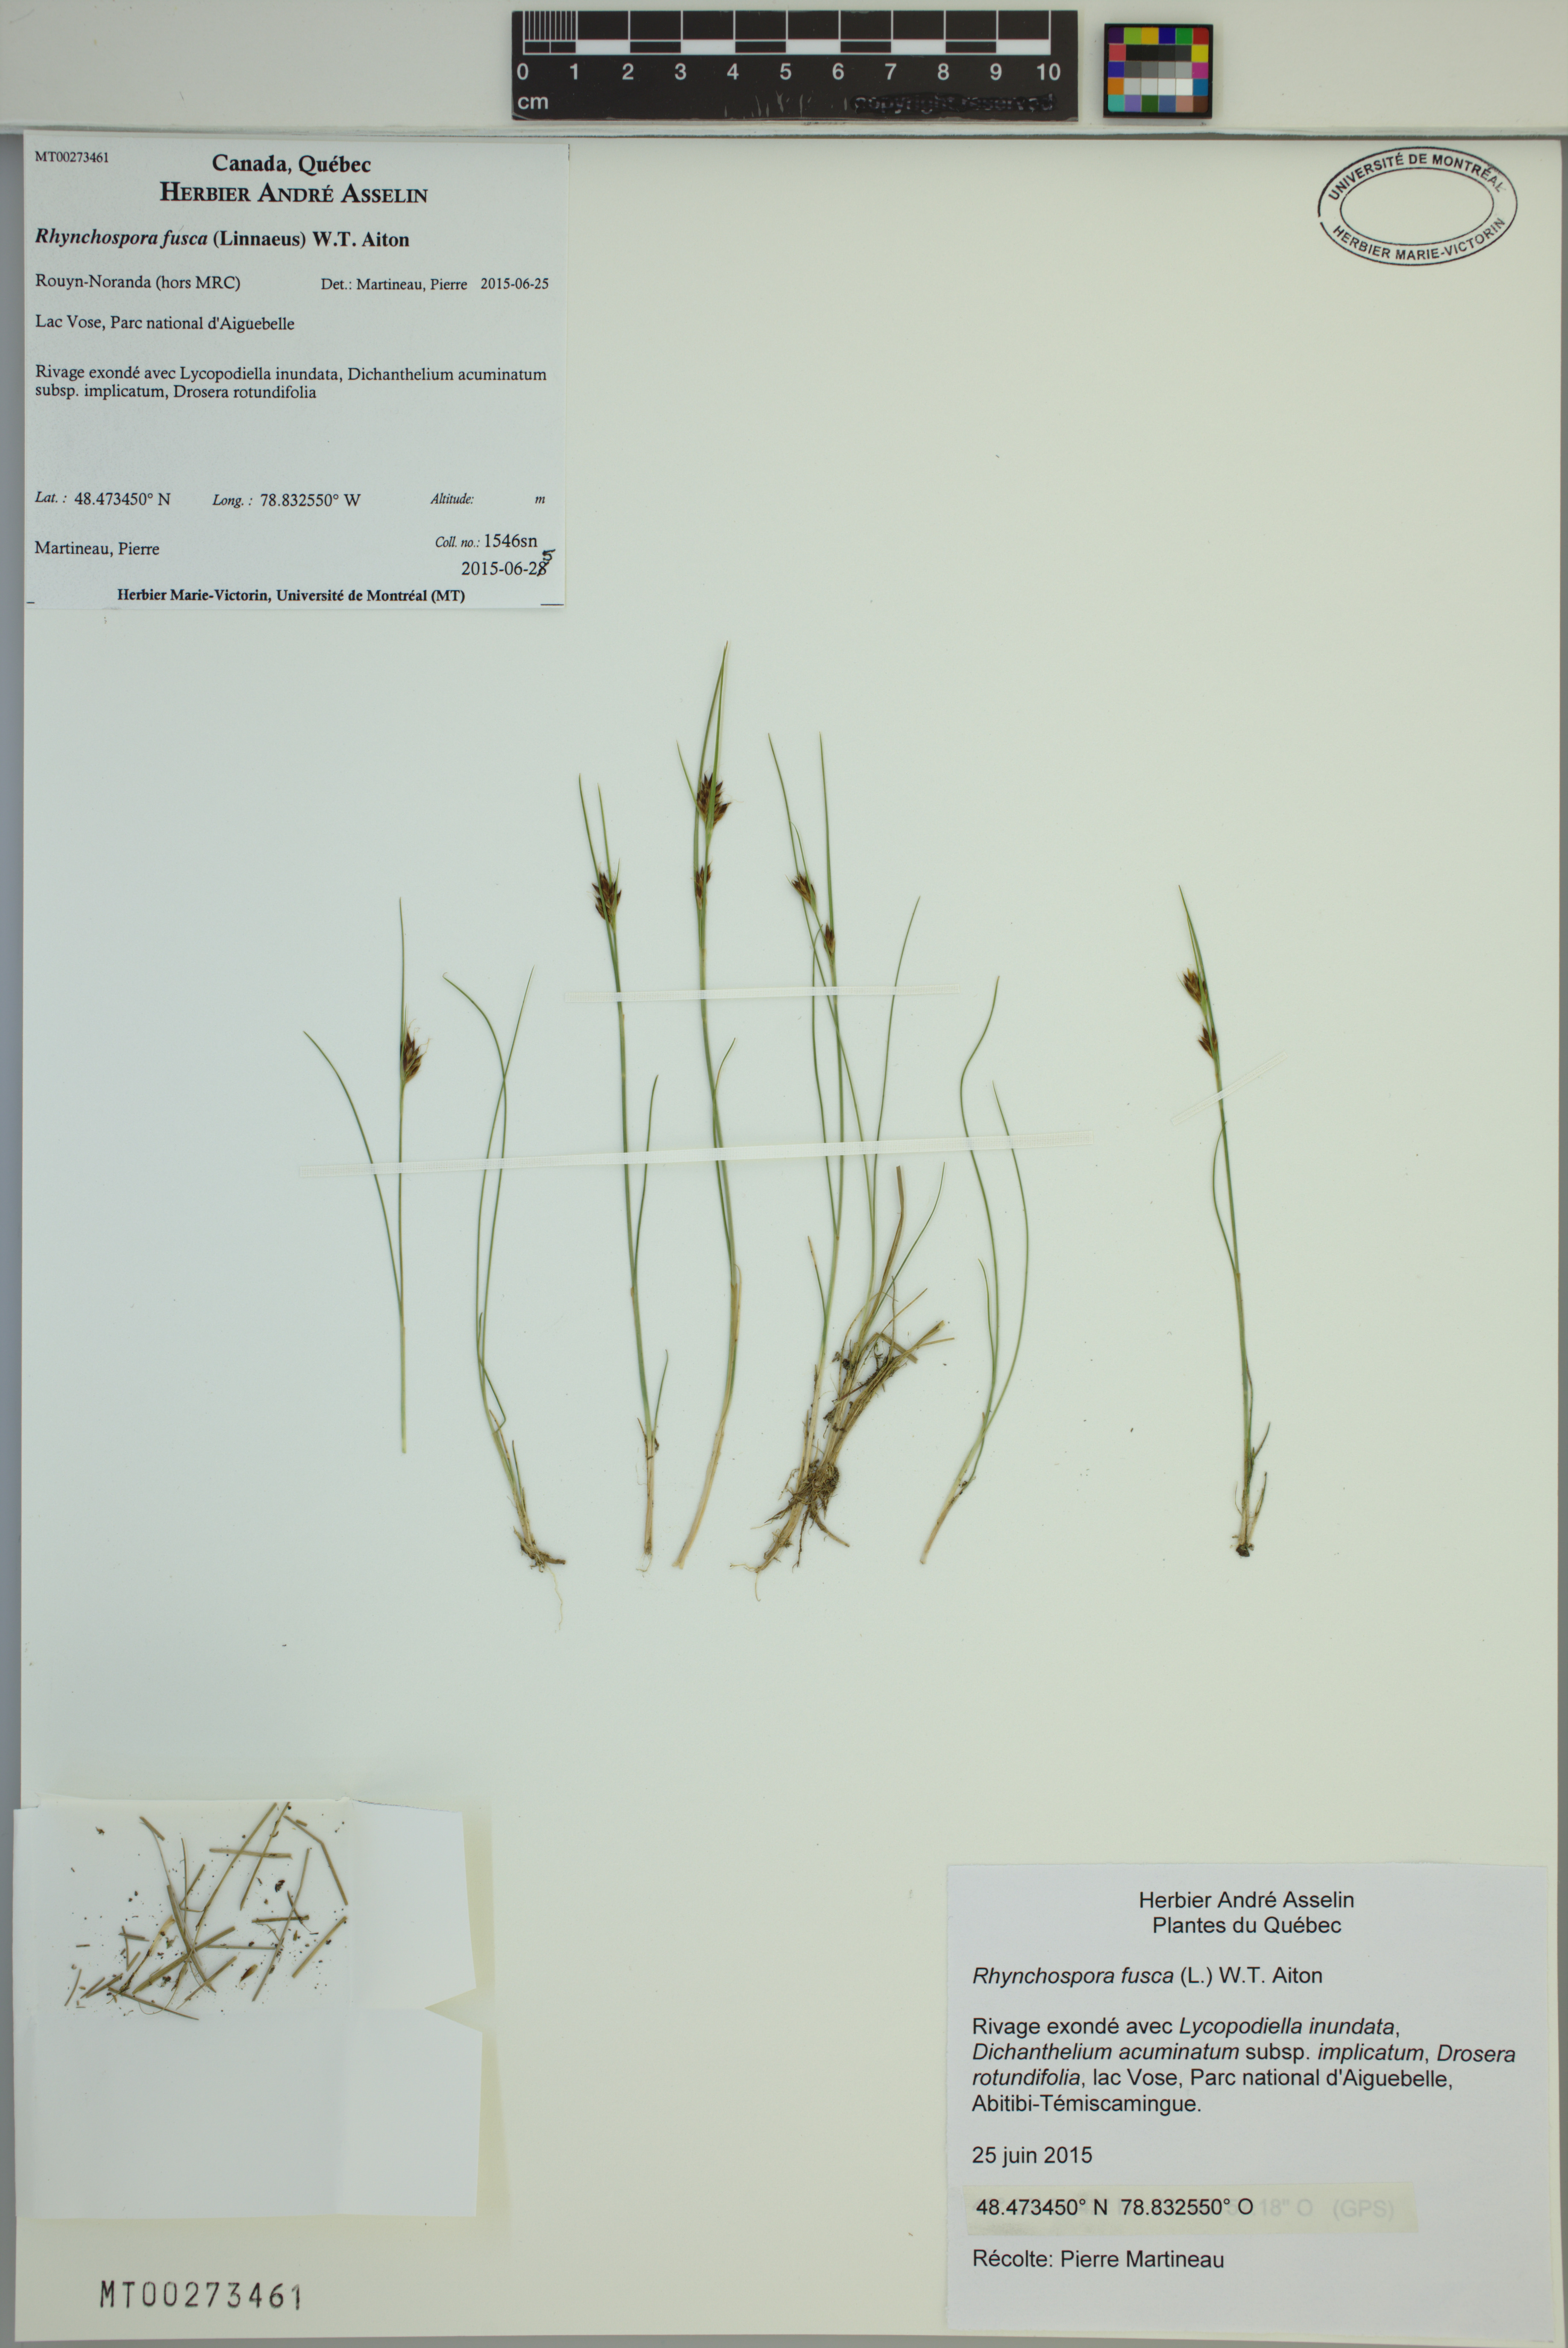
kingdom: Plantae
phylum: Tracheophyta
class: Liliopsida
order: Poales
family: Cyperaceae
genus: Rhynchospora
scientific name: Rhynchospora fusca
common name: Brown beak-sedge
